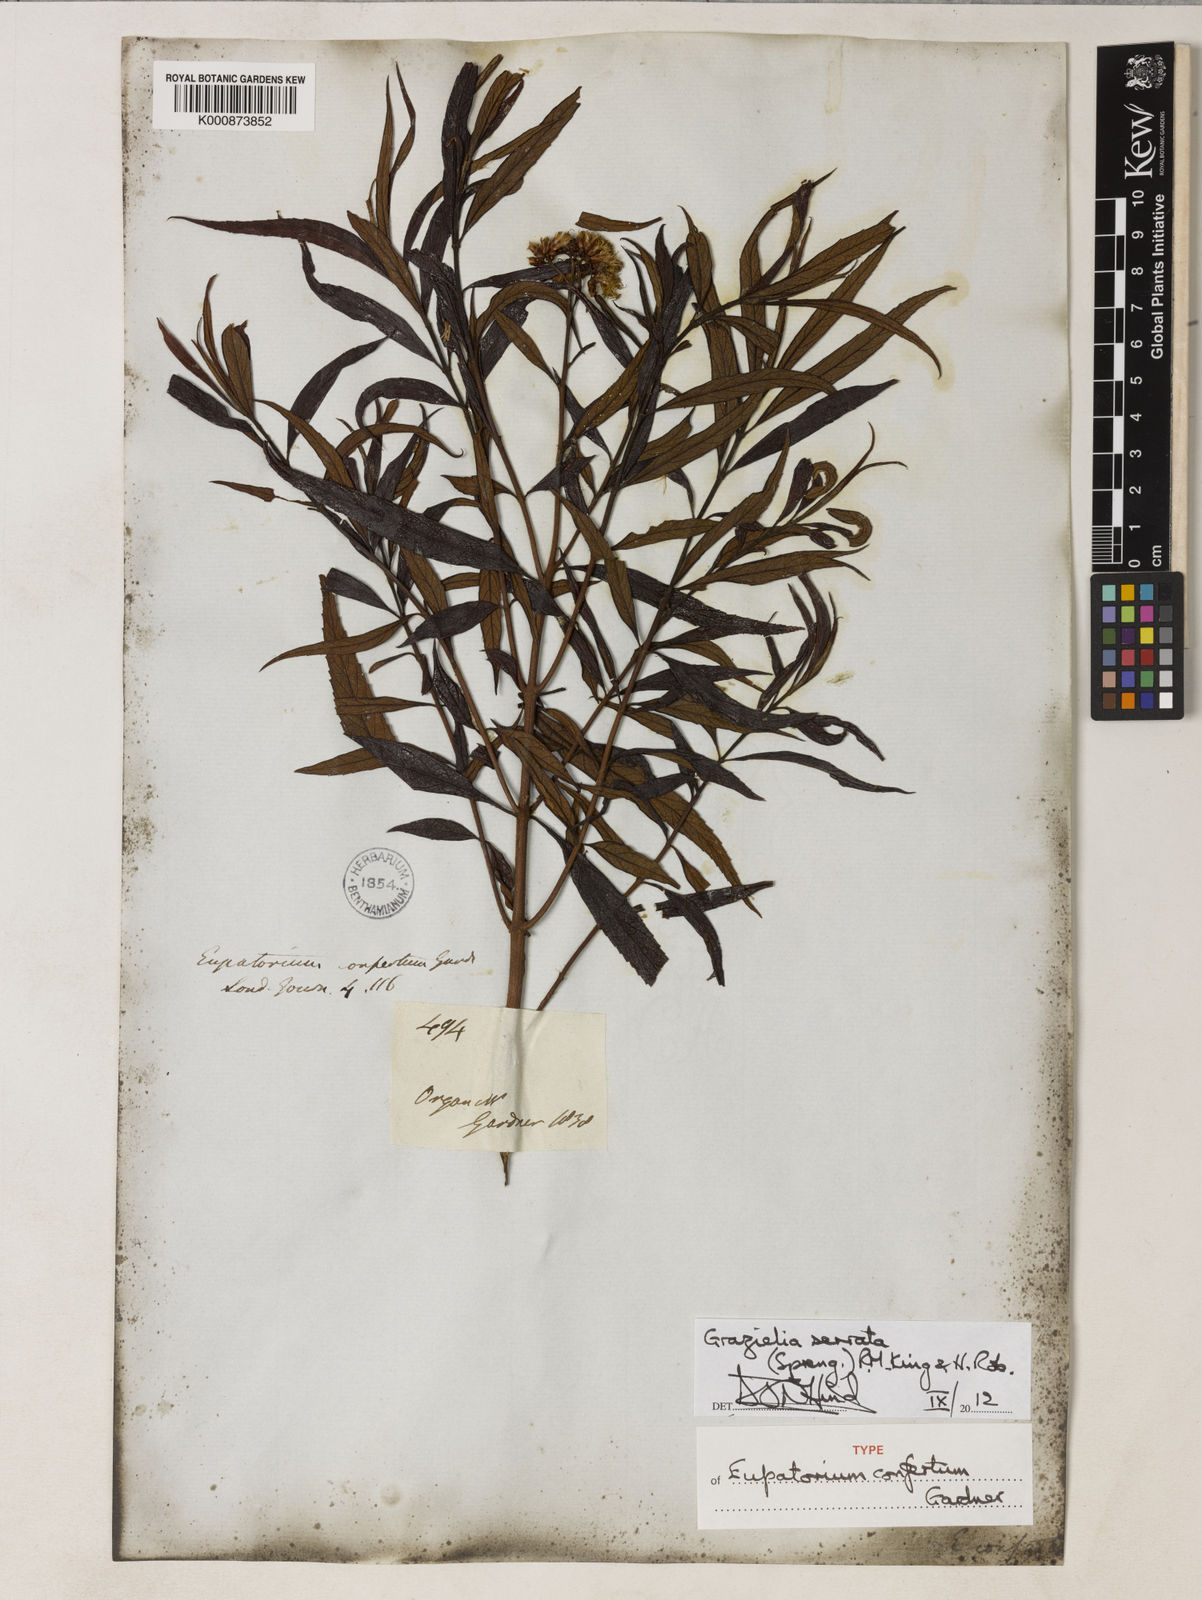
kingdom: Plantae
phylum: Tracheophyta
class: Magnoliopsida
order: Asterales
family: Asteraceae
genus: Grazielia
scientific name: Grazielia serrata
